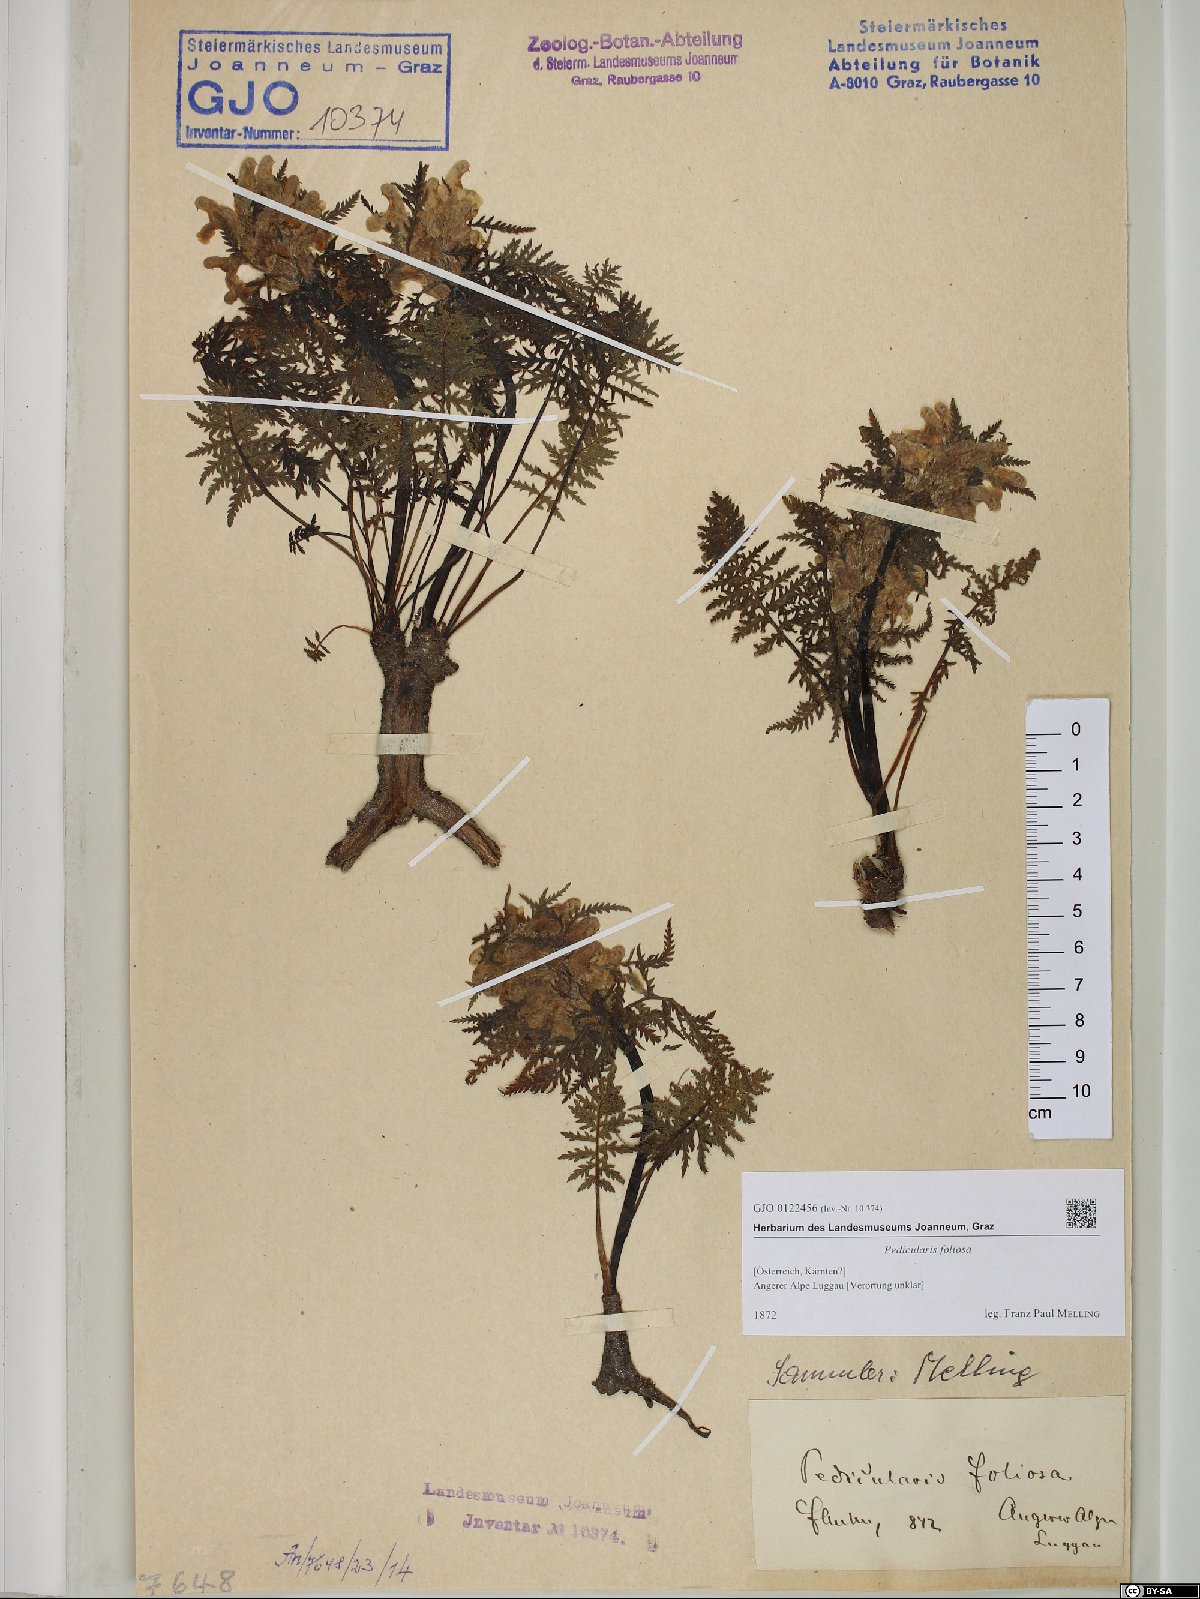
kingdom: Plantae
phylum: Tracheophyta
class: Magnoliopsida
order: Lamiales
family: Orobanchaceae
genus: Pedicularis
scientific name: Pedicularis foliosa
